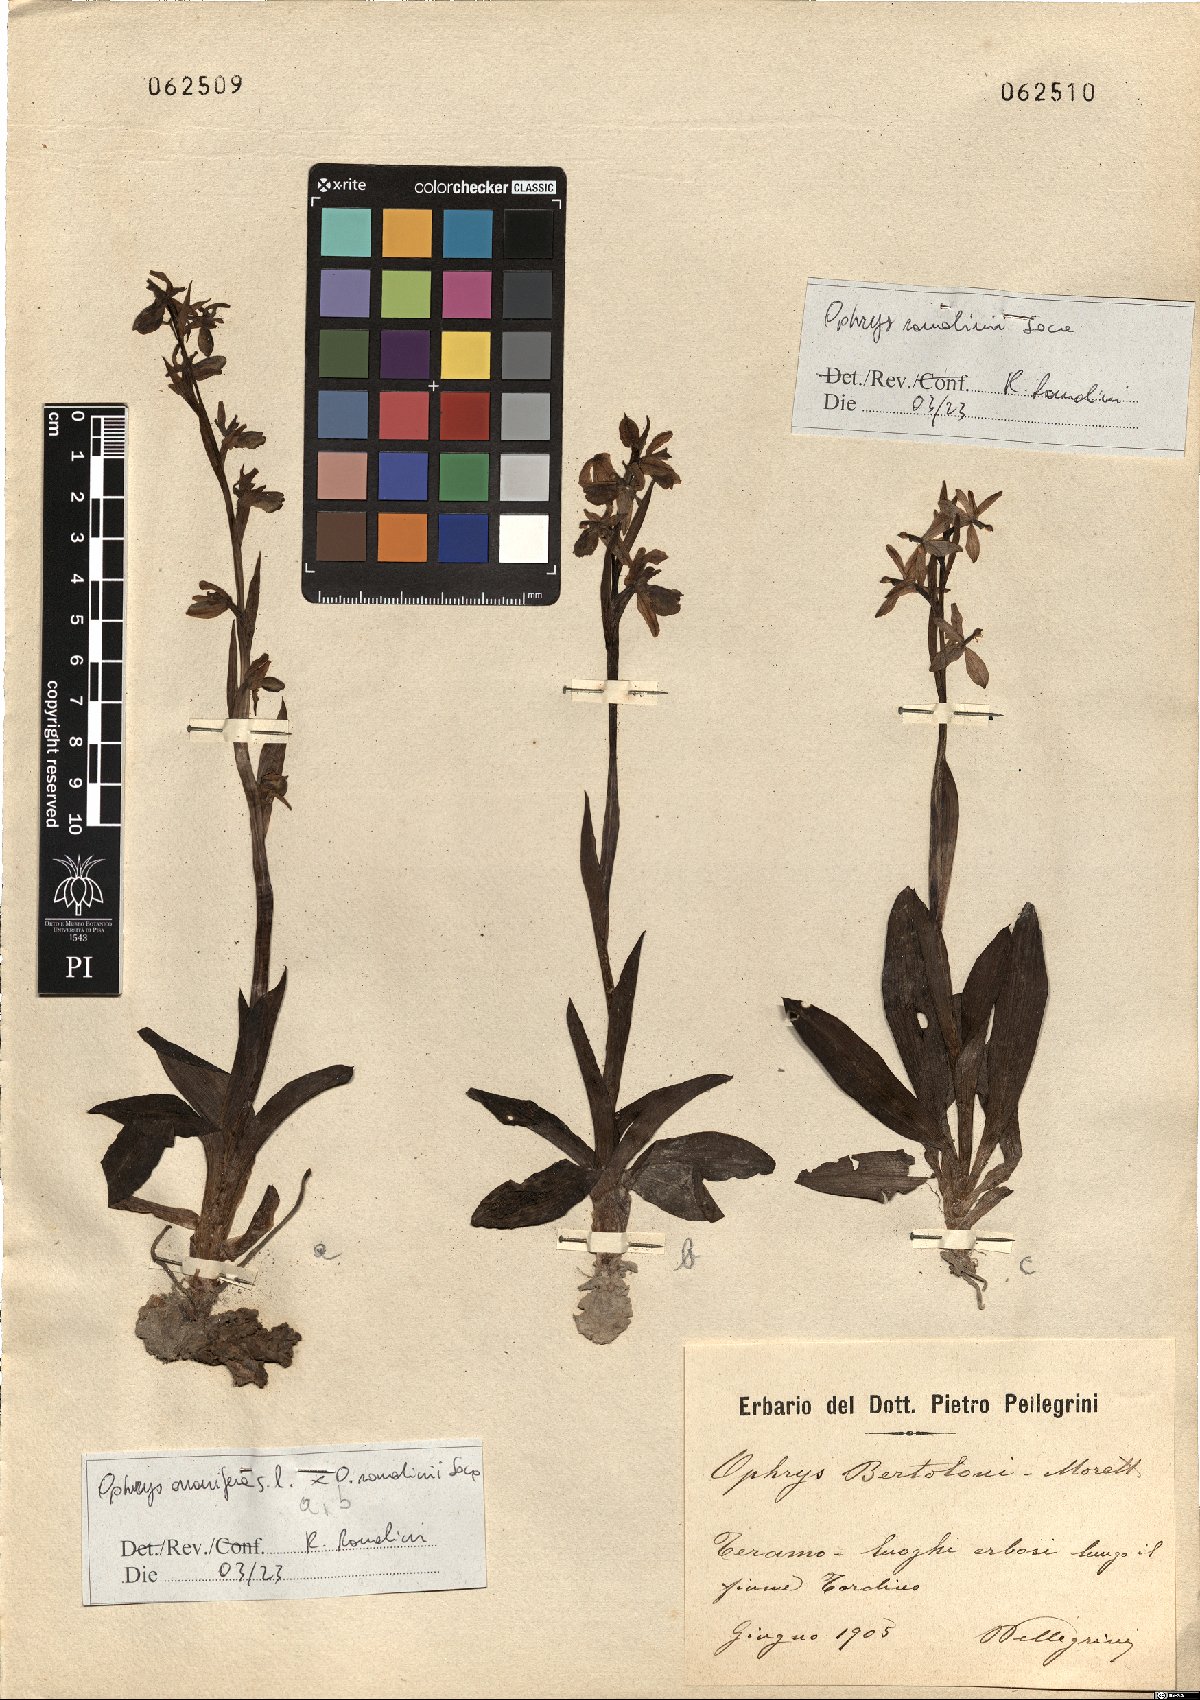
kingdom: Plantae
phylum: Tracheophyta
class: Liliopsida
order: Asparagales
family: Orchidaceae
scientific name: Orchidaceae
